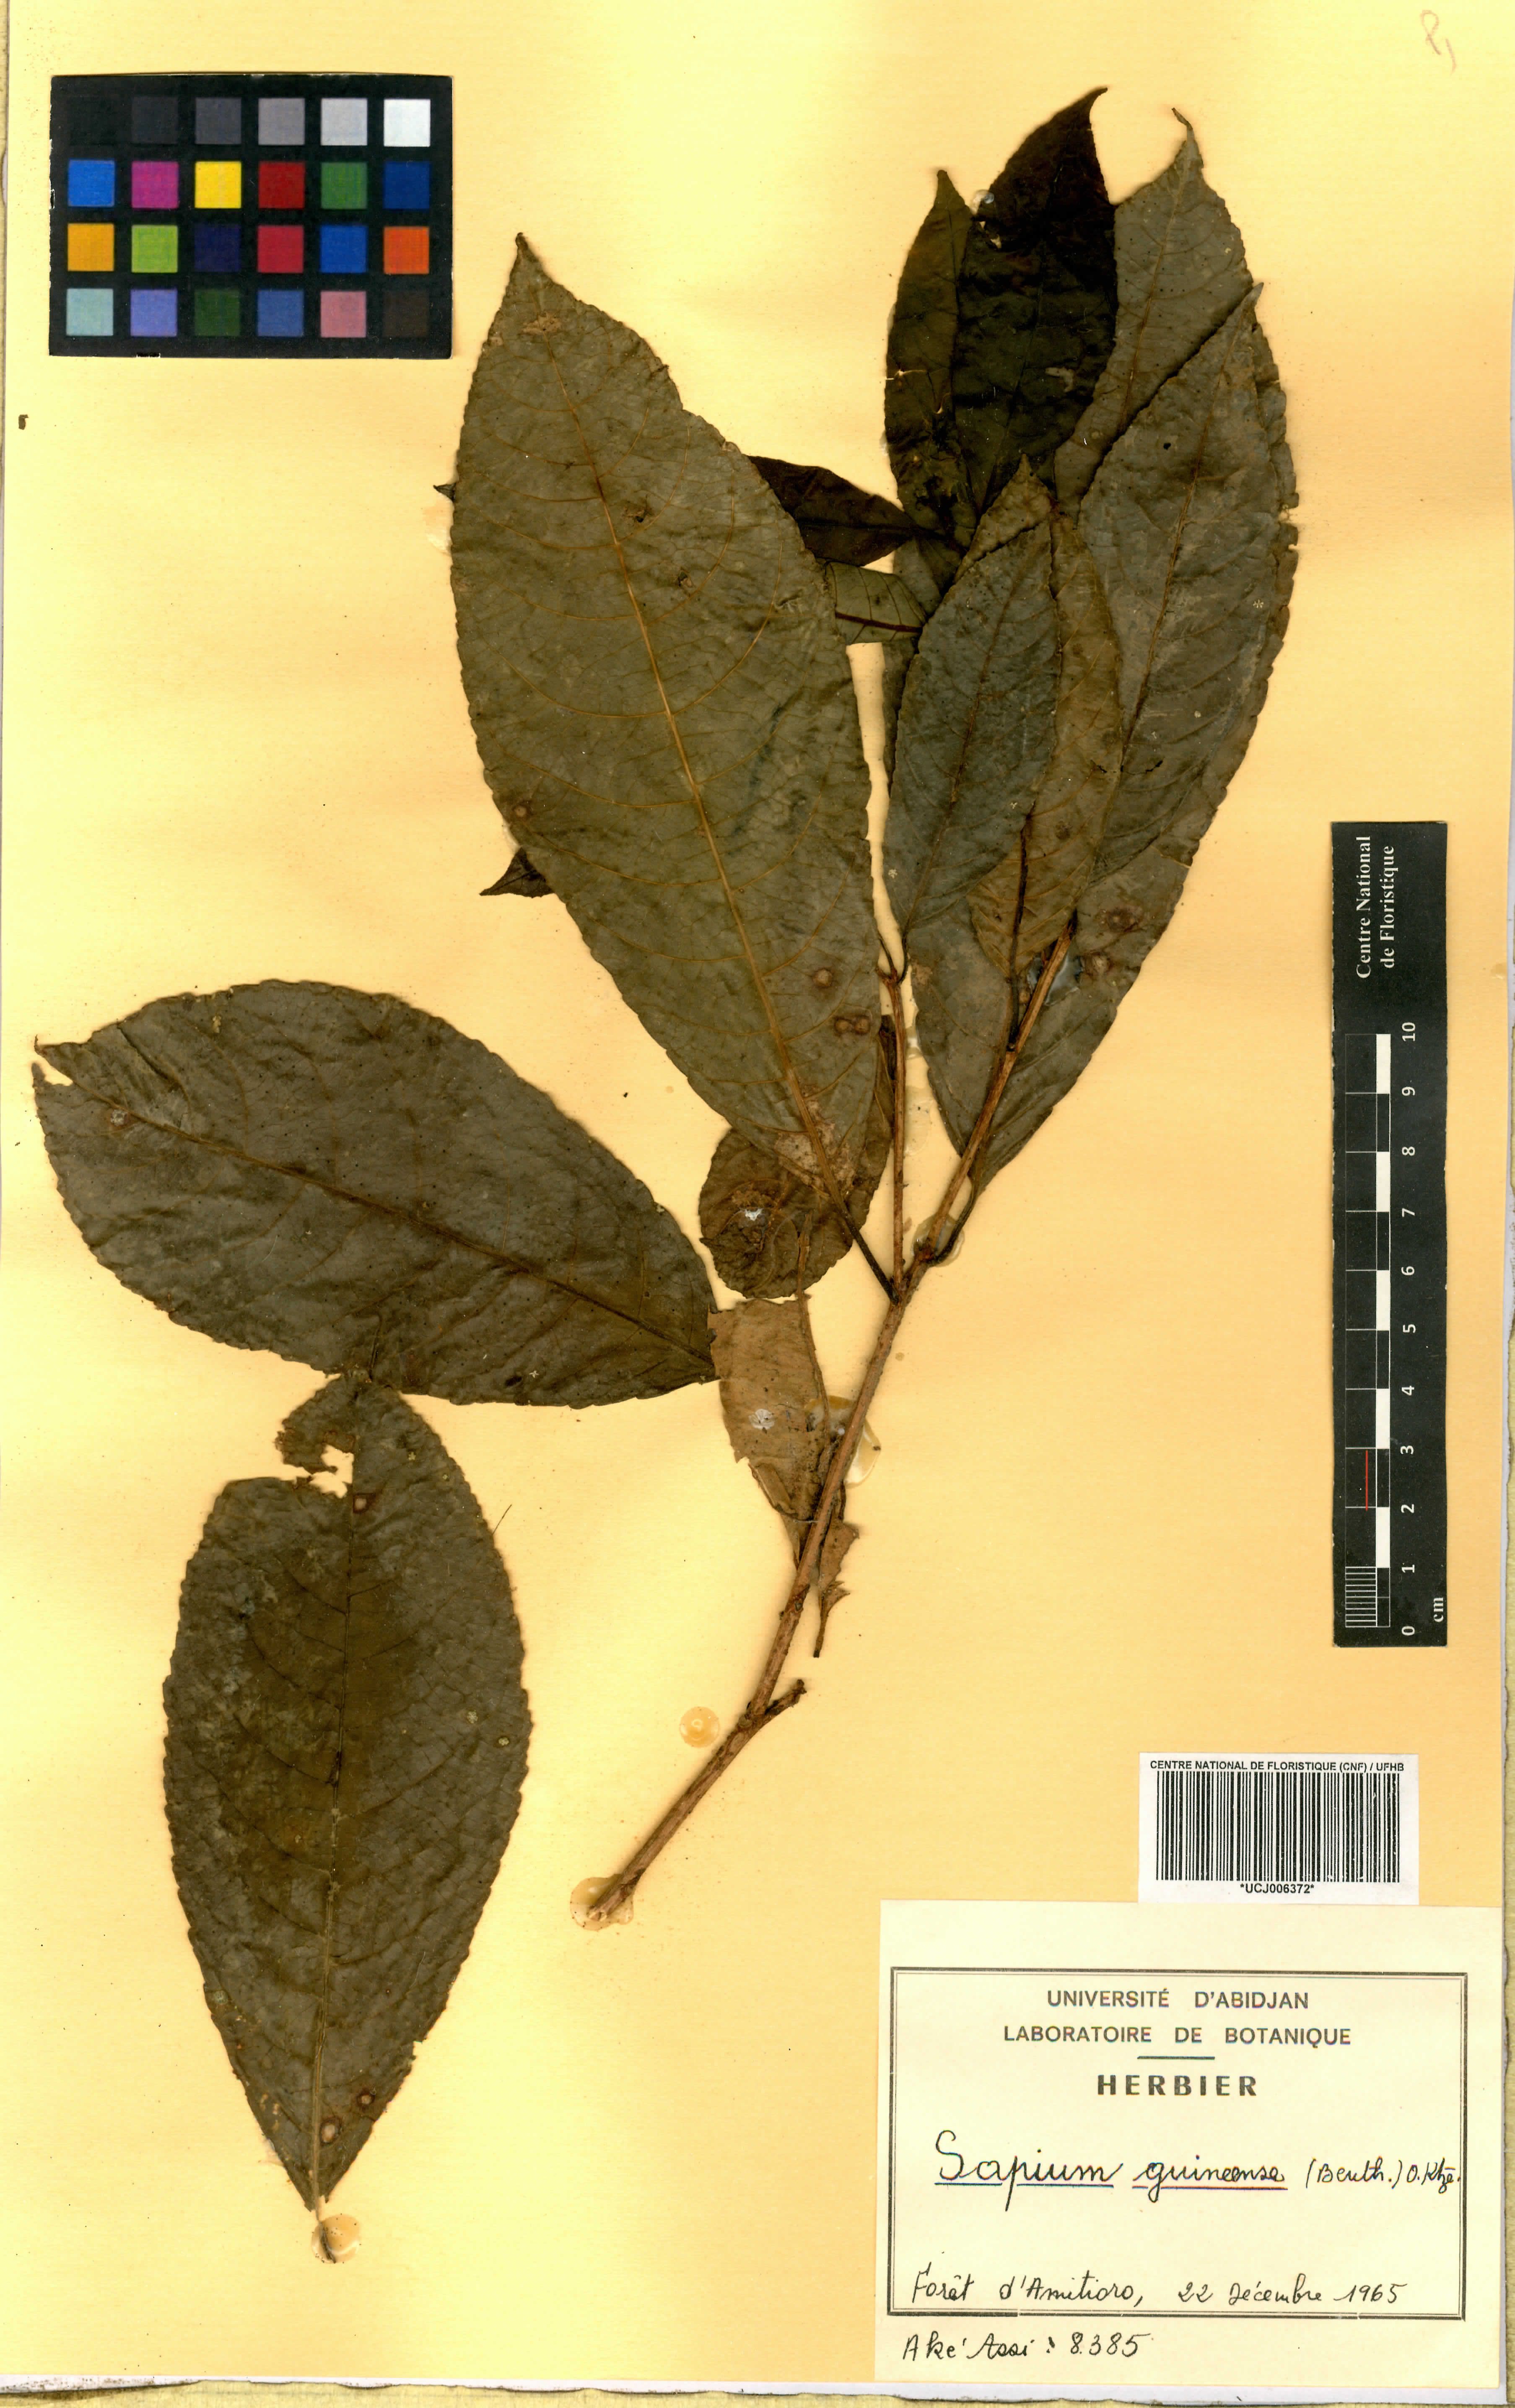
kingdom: Plantae
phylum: Tracheophyta
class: Magnoliopsida
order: Malpighiales
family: Euphorbiaceae
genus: Excoecaria
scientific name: Excoecaria guineensis
